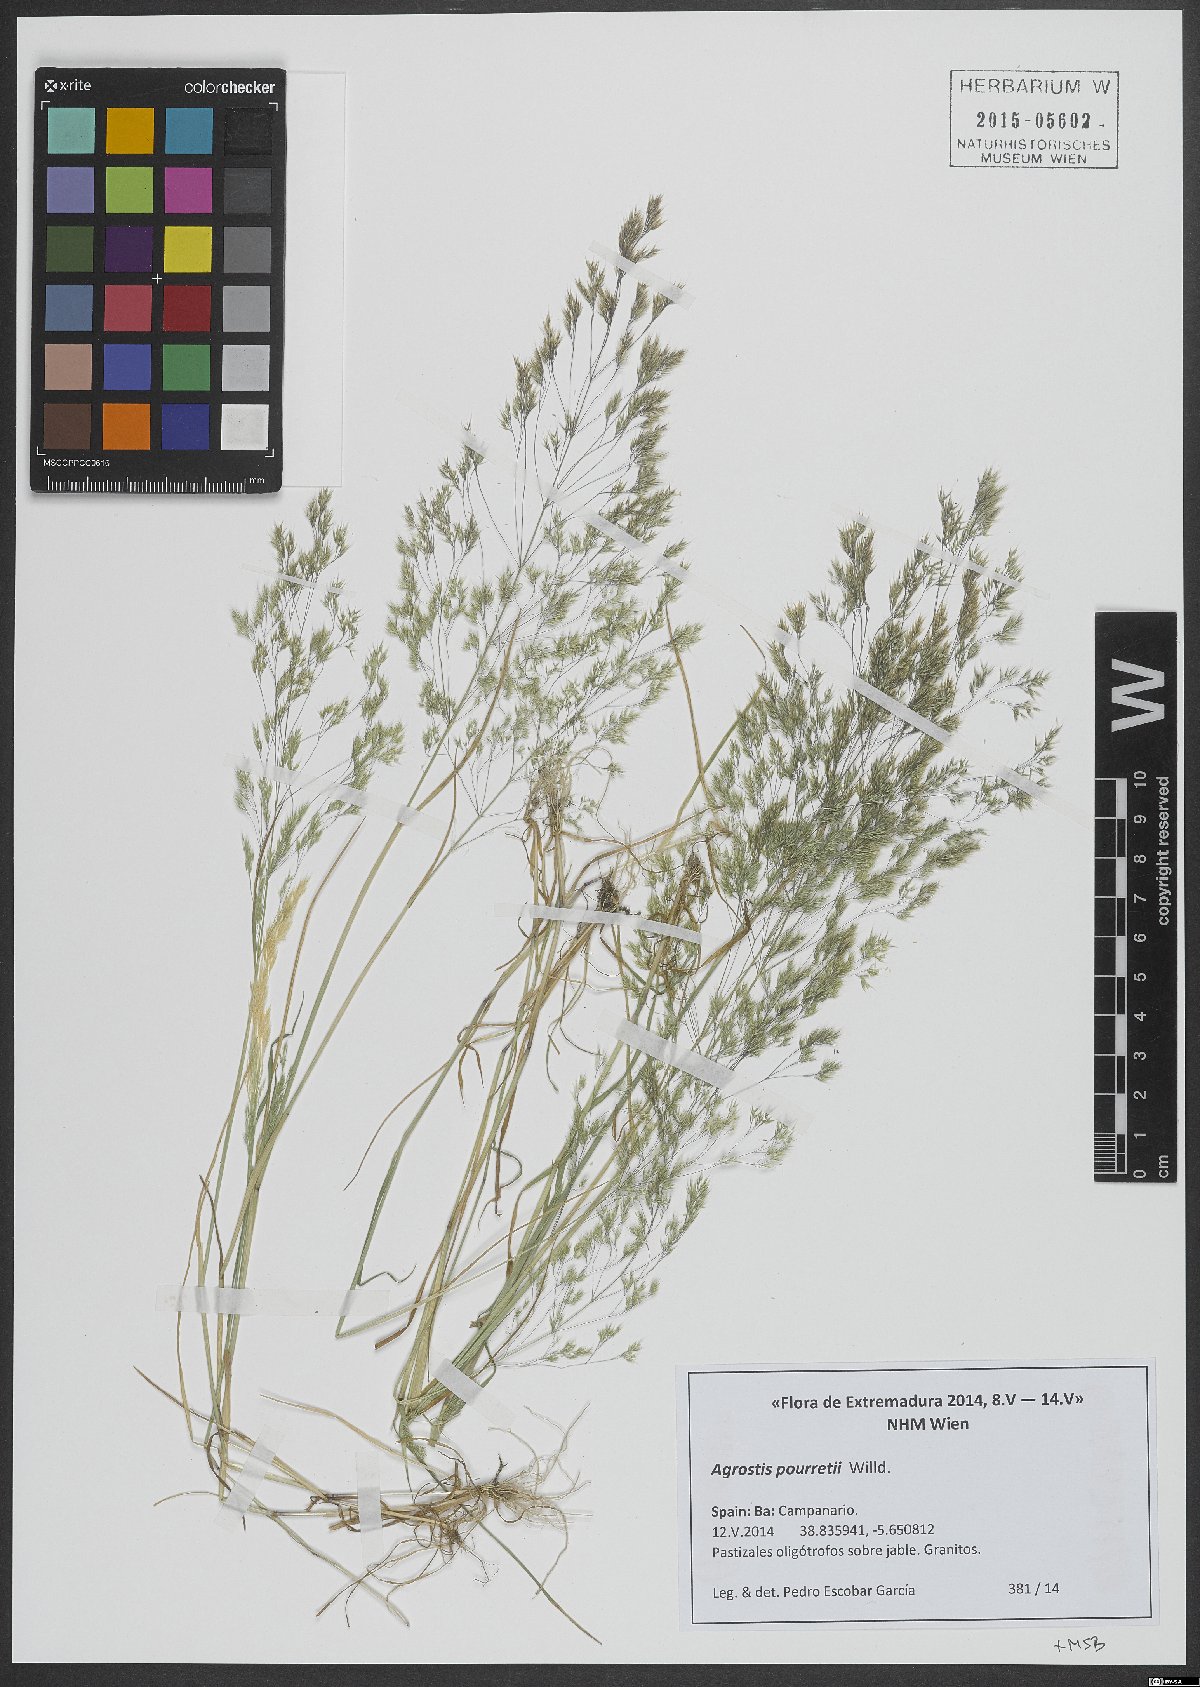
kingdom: Plantae
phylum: Tracheophyta
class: Liliopsida
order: Poales
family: Poaceae
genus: Agrostis
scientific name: Agrostis pourretii
